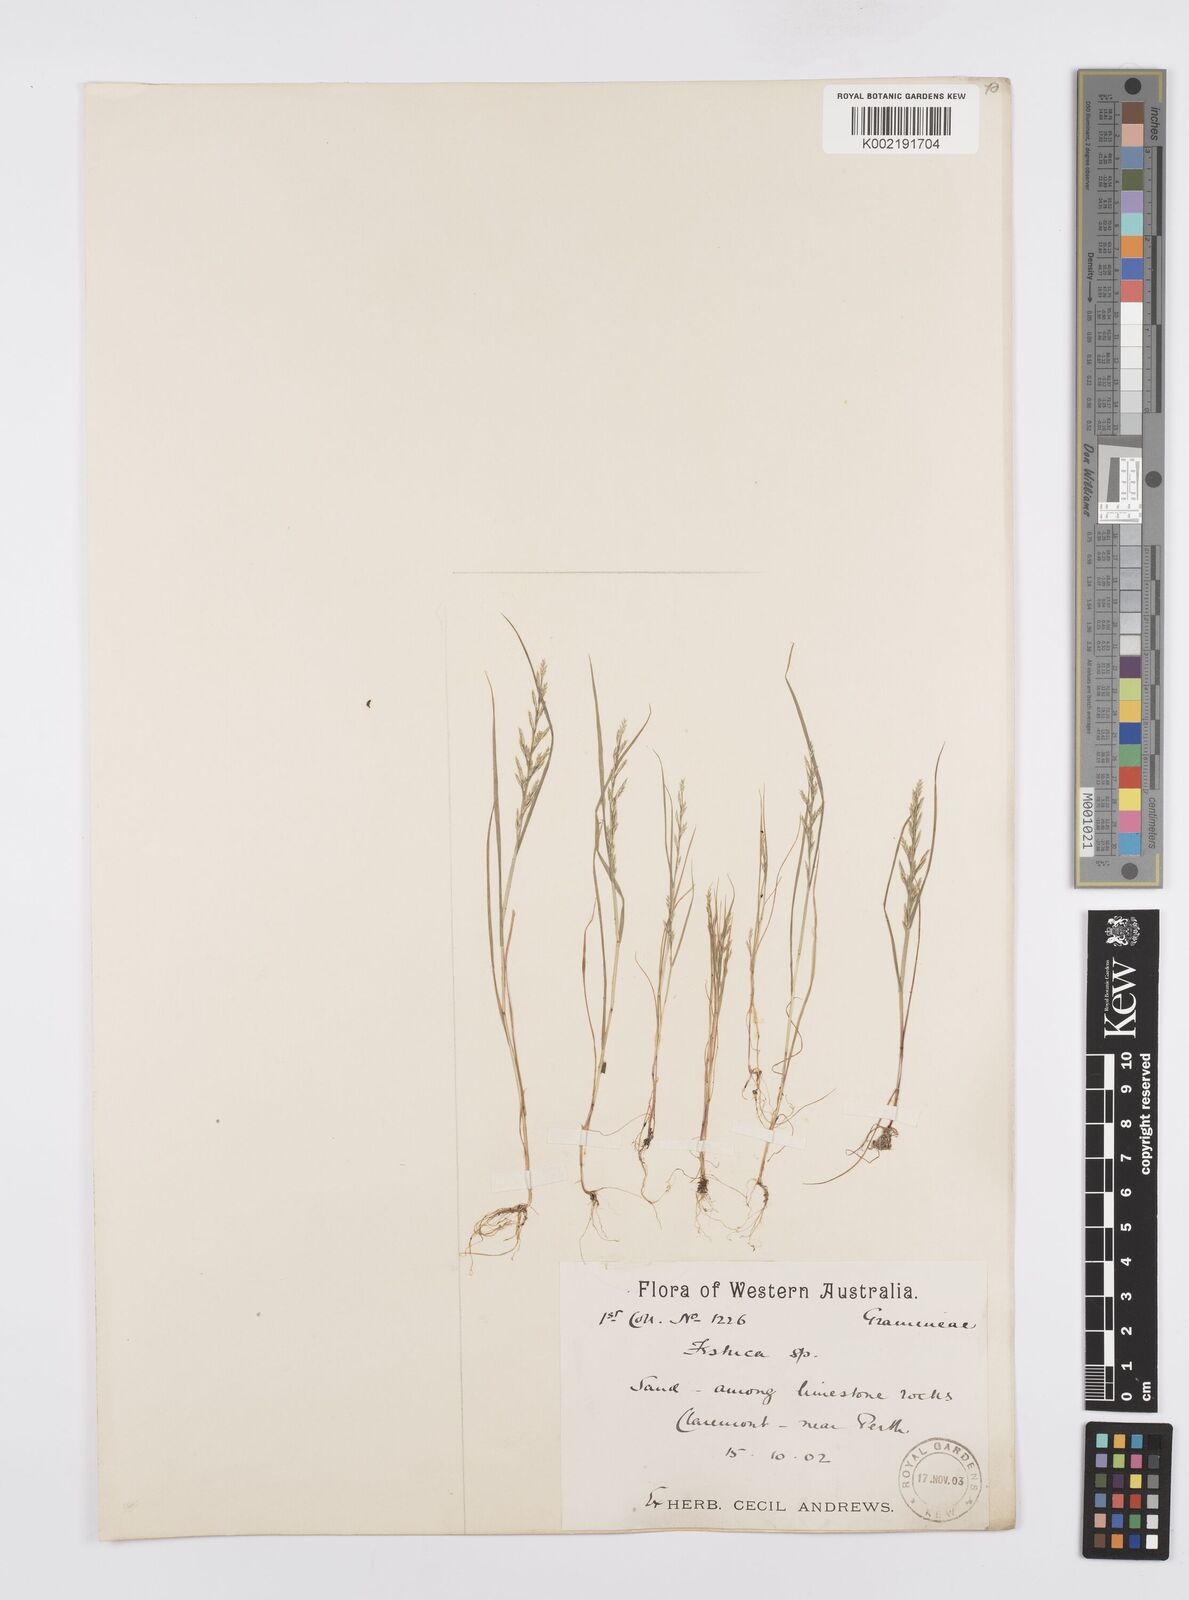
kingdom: Plantae
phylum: Tracheophyta
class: Liliopsida
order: Poales
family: Poaceae
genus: Catapodium
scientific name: Catapodium rigidum
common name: Fern-grass
